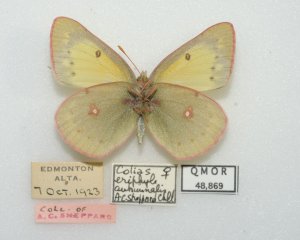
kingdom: Animalia
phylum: Arthropoda
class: Insecta
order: Lepidoptera
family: Pieridae
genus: Colias
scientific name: Colias philodice
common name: Clouded Sulphur
